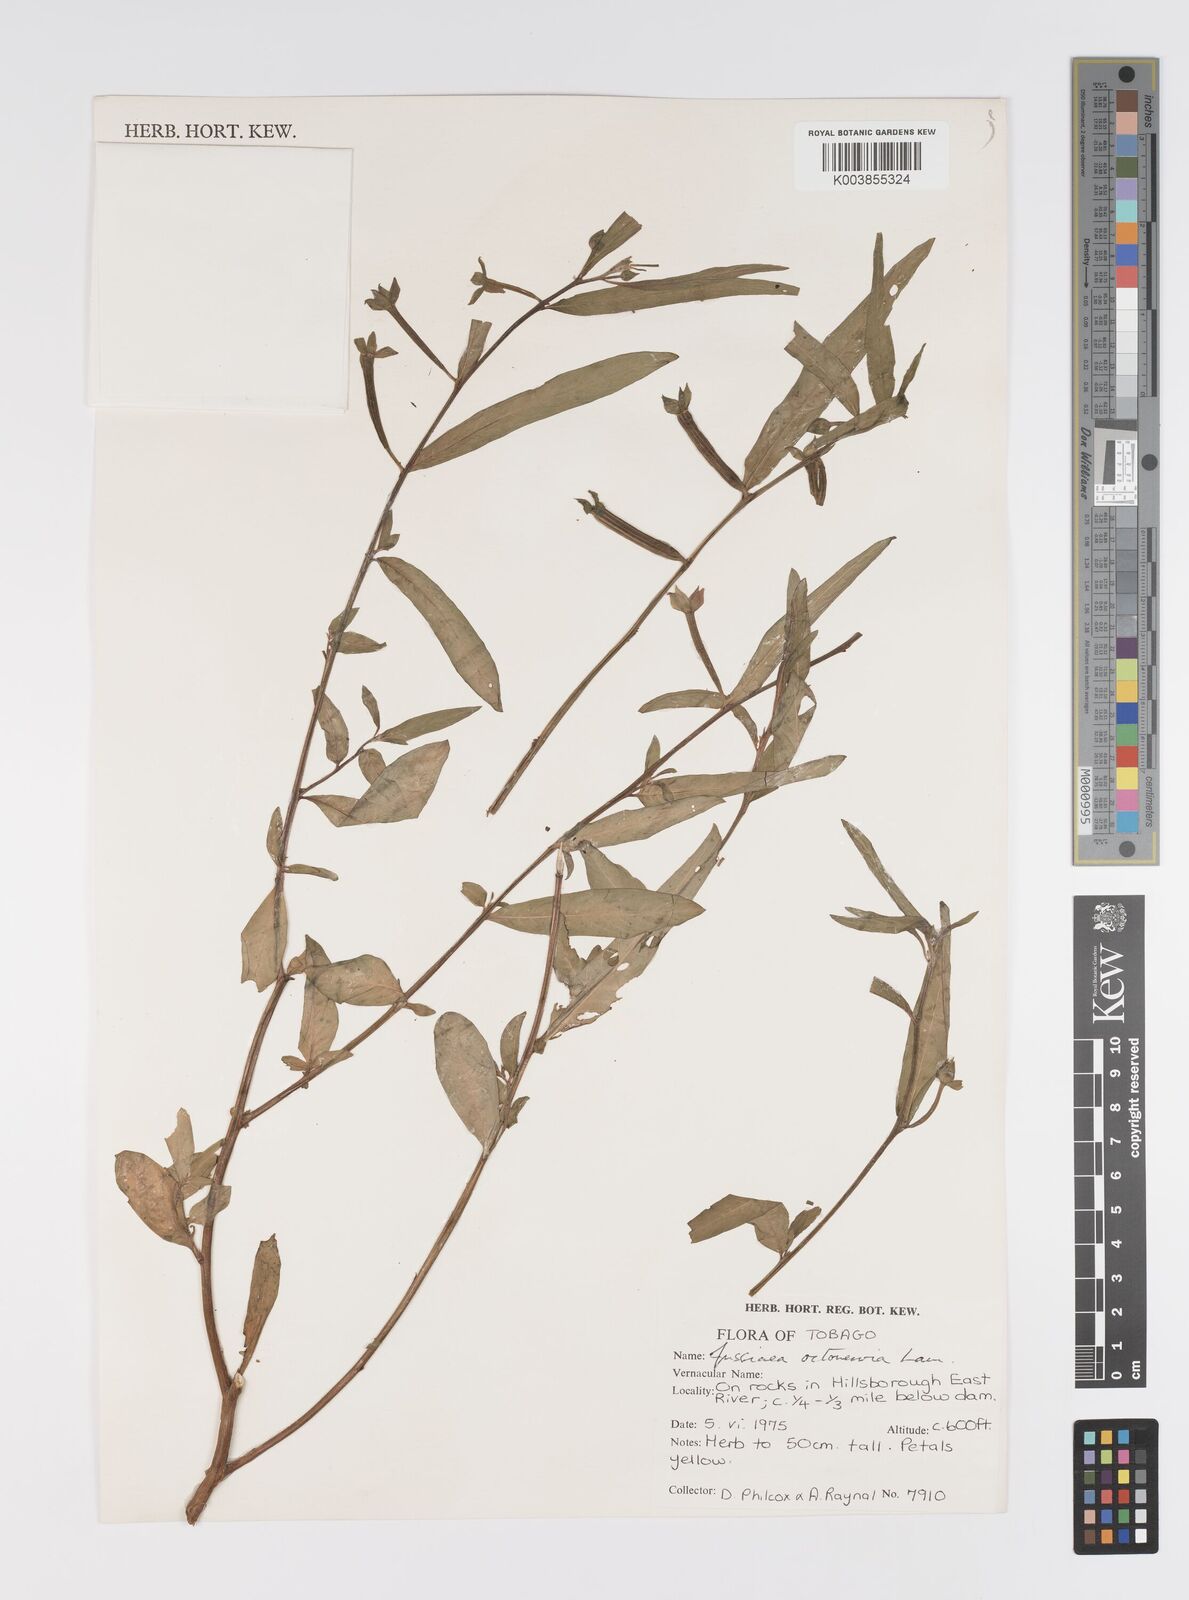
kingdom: Plantae
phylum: Tracheophyta
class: Magnoliopsida
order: Myrtales
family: Onagraceae
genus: Ludwigia
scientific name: Ludwigia
